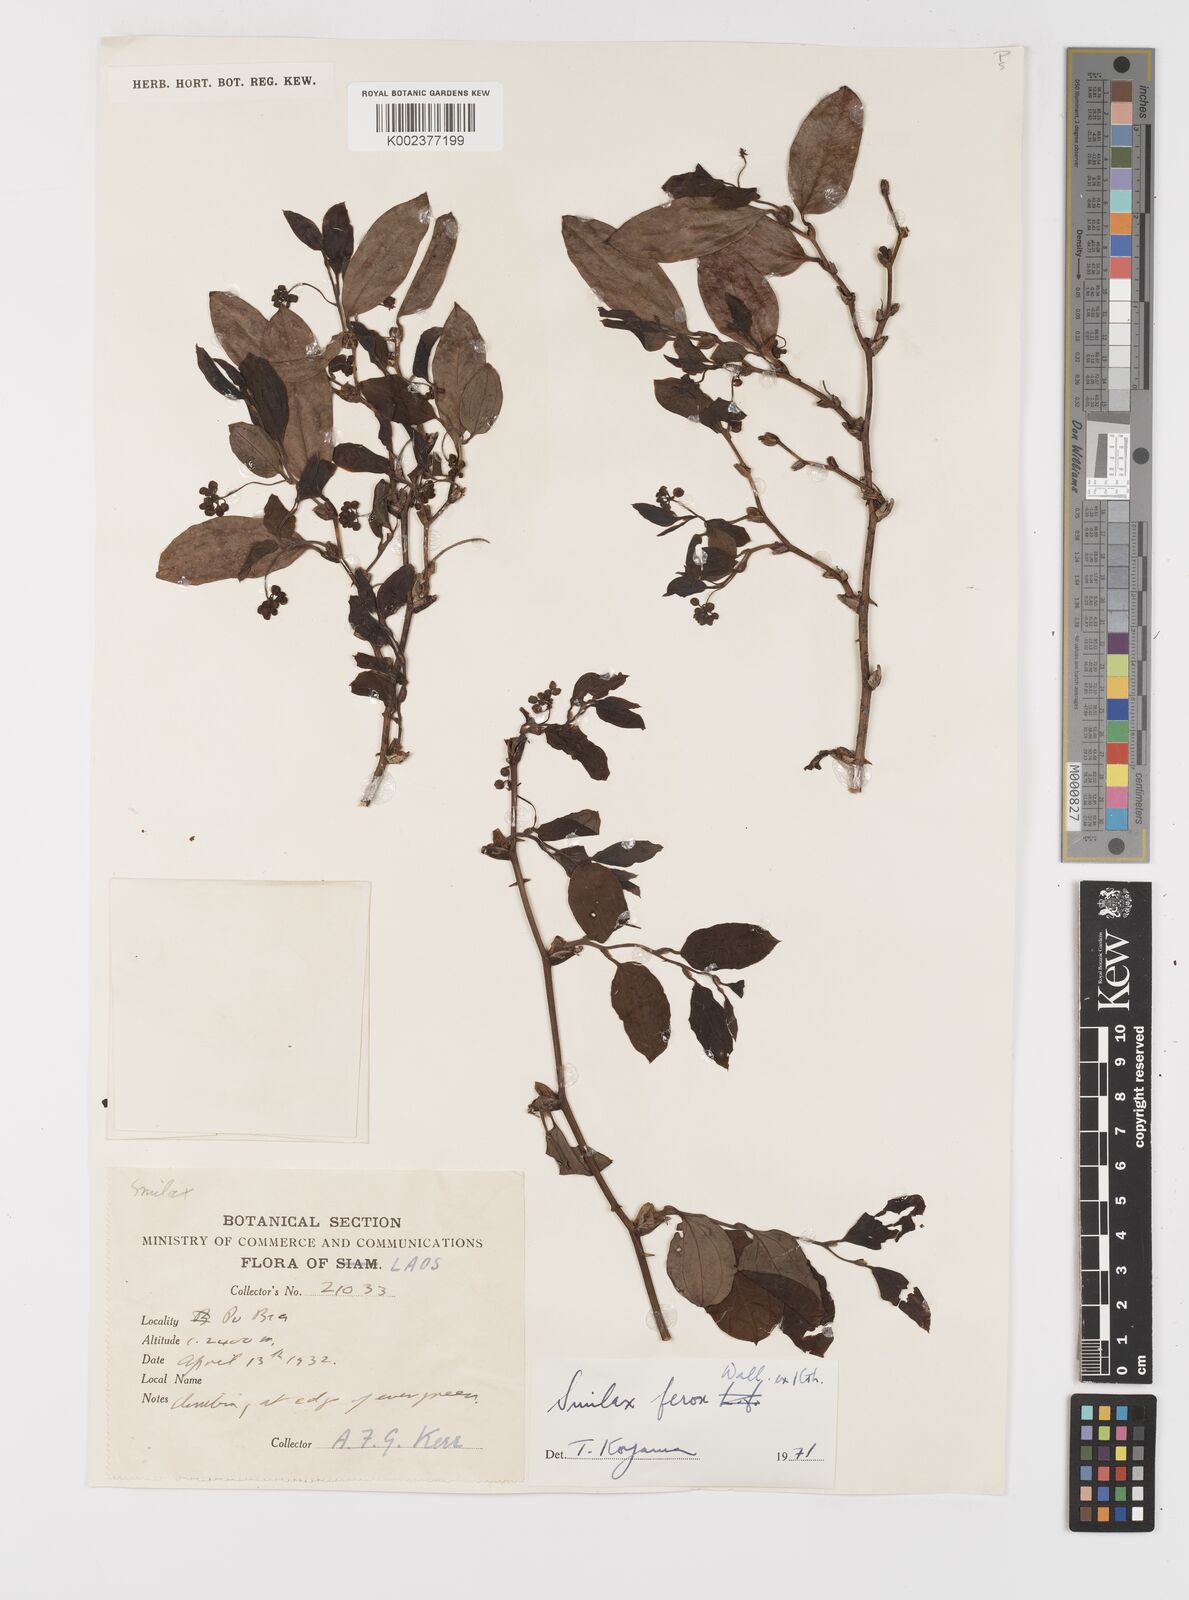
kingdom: Plantae
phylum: Tracheophyta
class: Liliopsida
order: Liliales
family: Smilacaceae
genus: Smilax
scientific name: Smilax ferox
